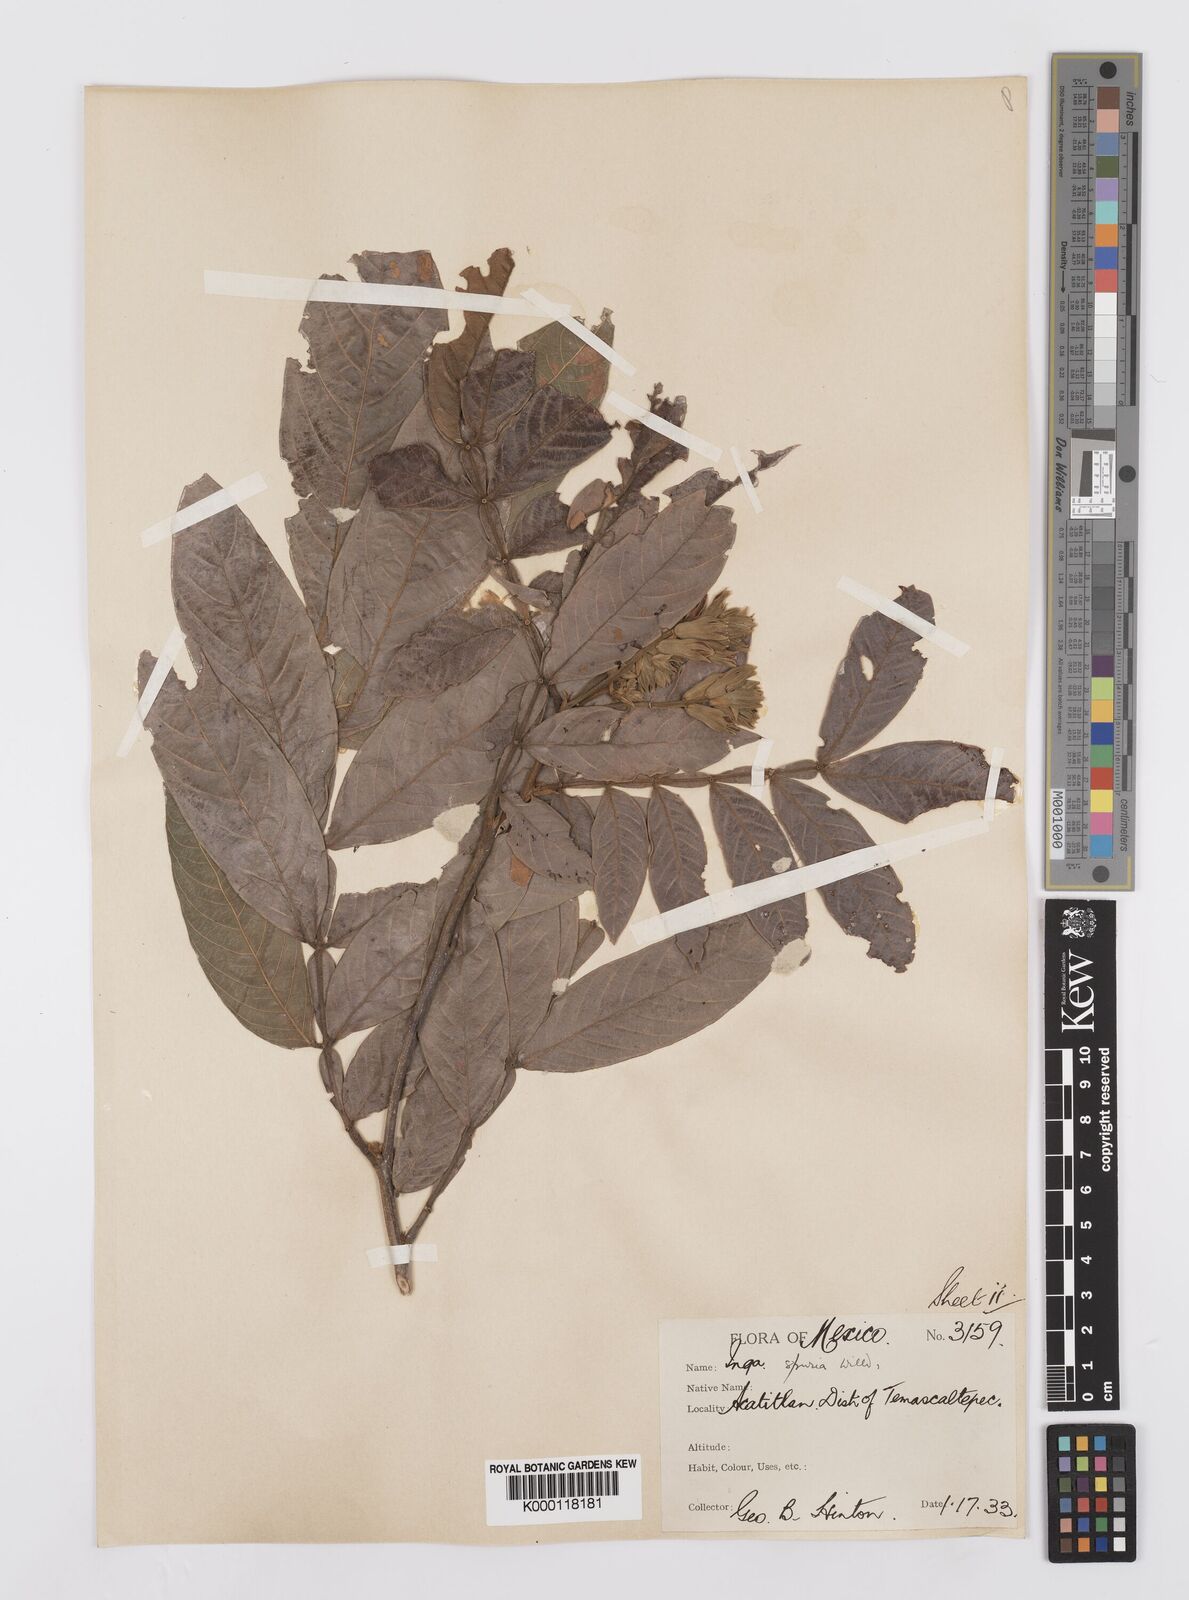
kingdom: Plantae
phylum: Tracheophyta
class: Magnoliopsida
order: Fabales
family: Fabaceae
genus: Inga
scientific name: Inga vera
